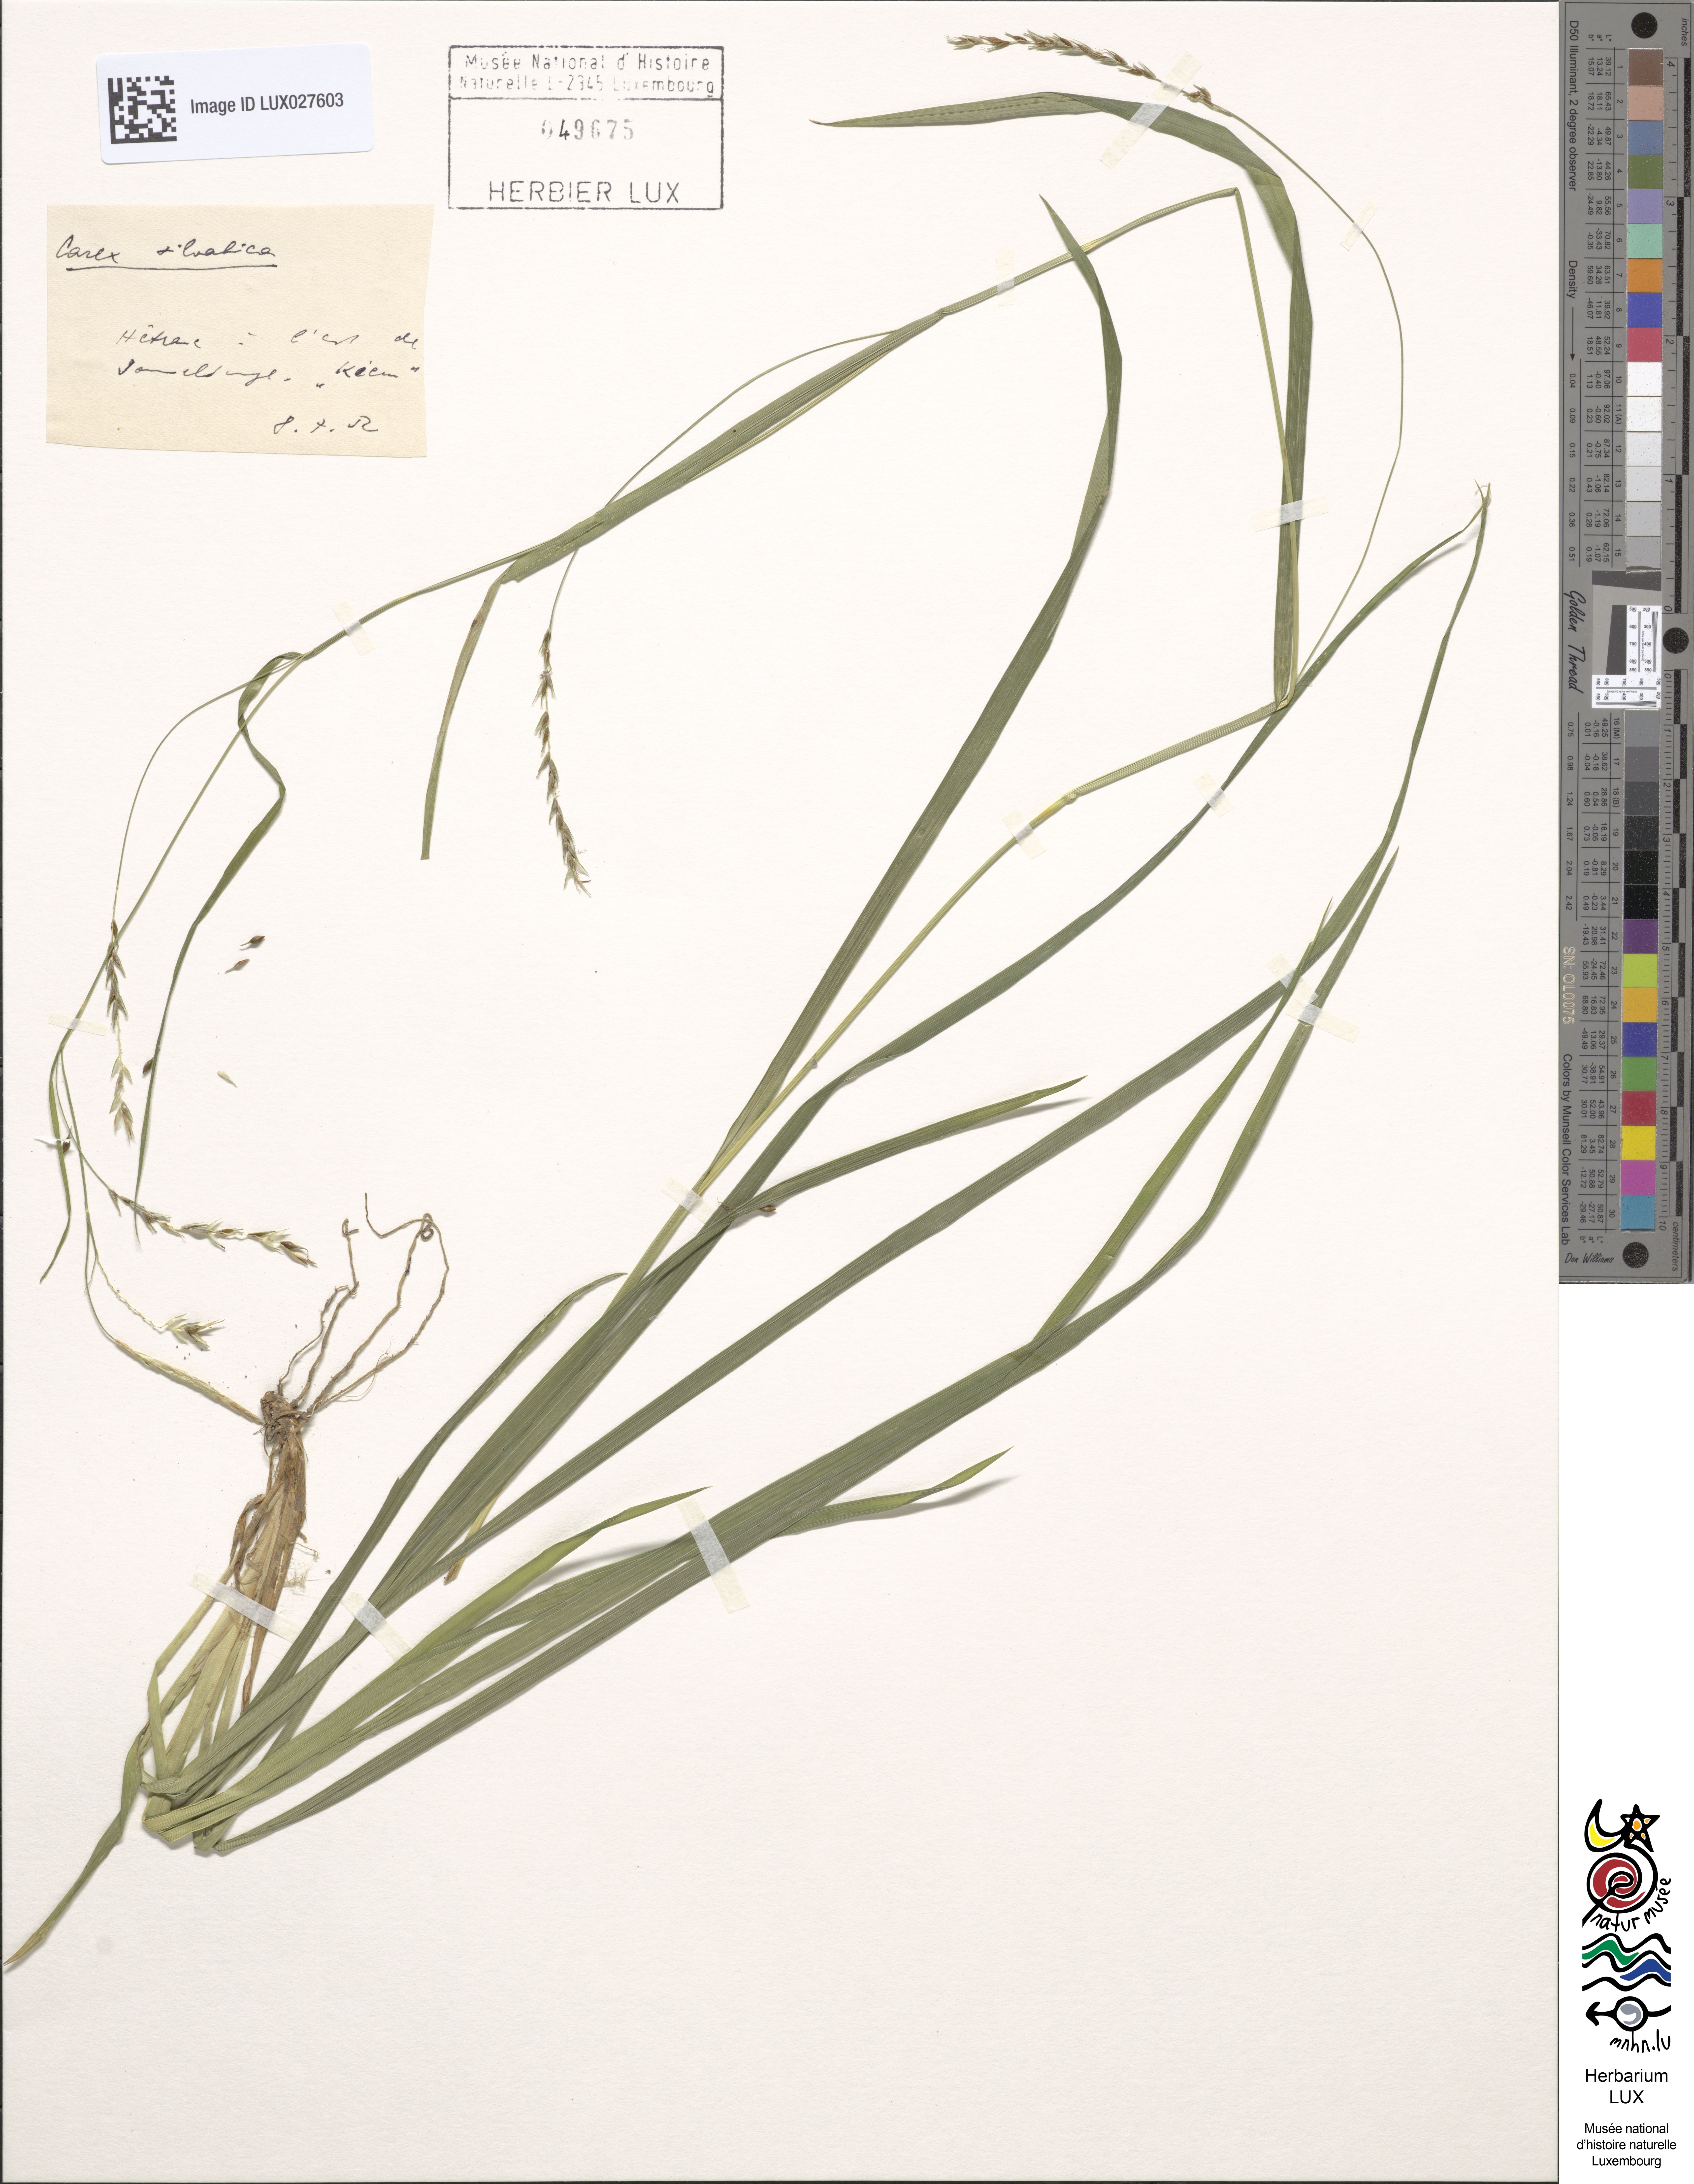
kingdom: Plantae
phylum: Tracheophyta
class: Liliopsida
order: Poales
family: Cyperaceae
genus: Carex
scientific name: Carex sylvatica
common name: Wood-sedge
